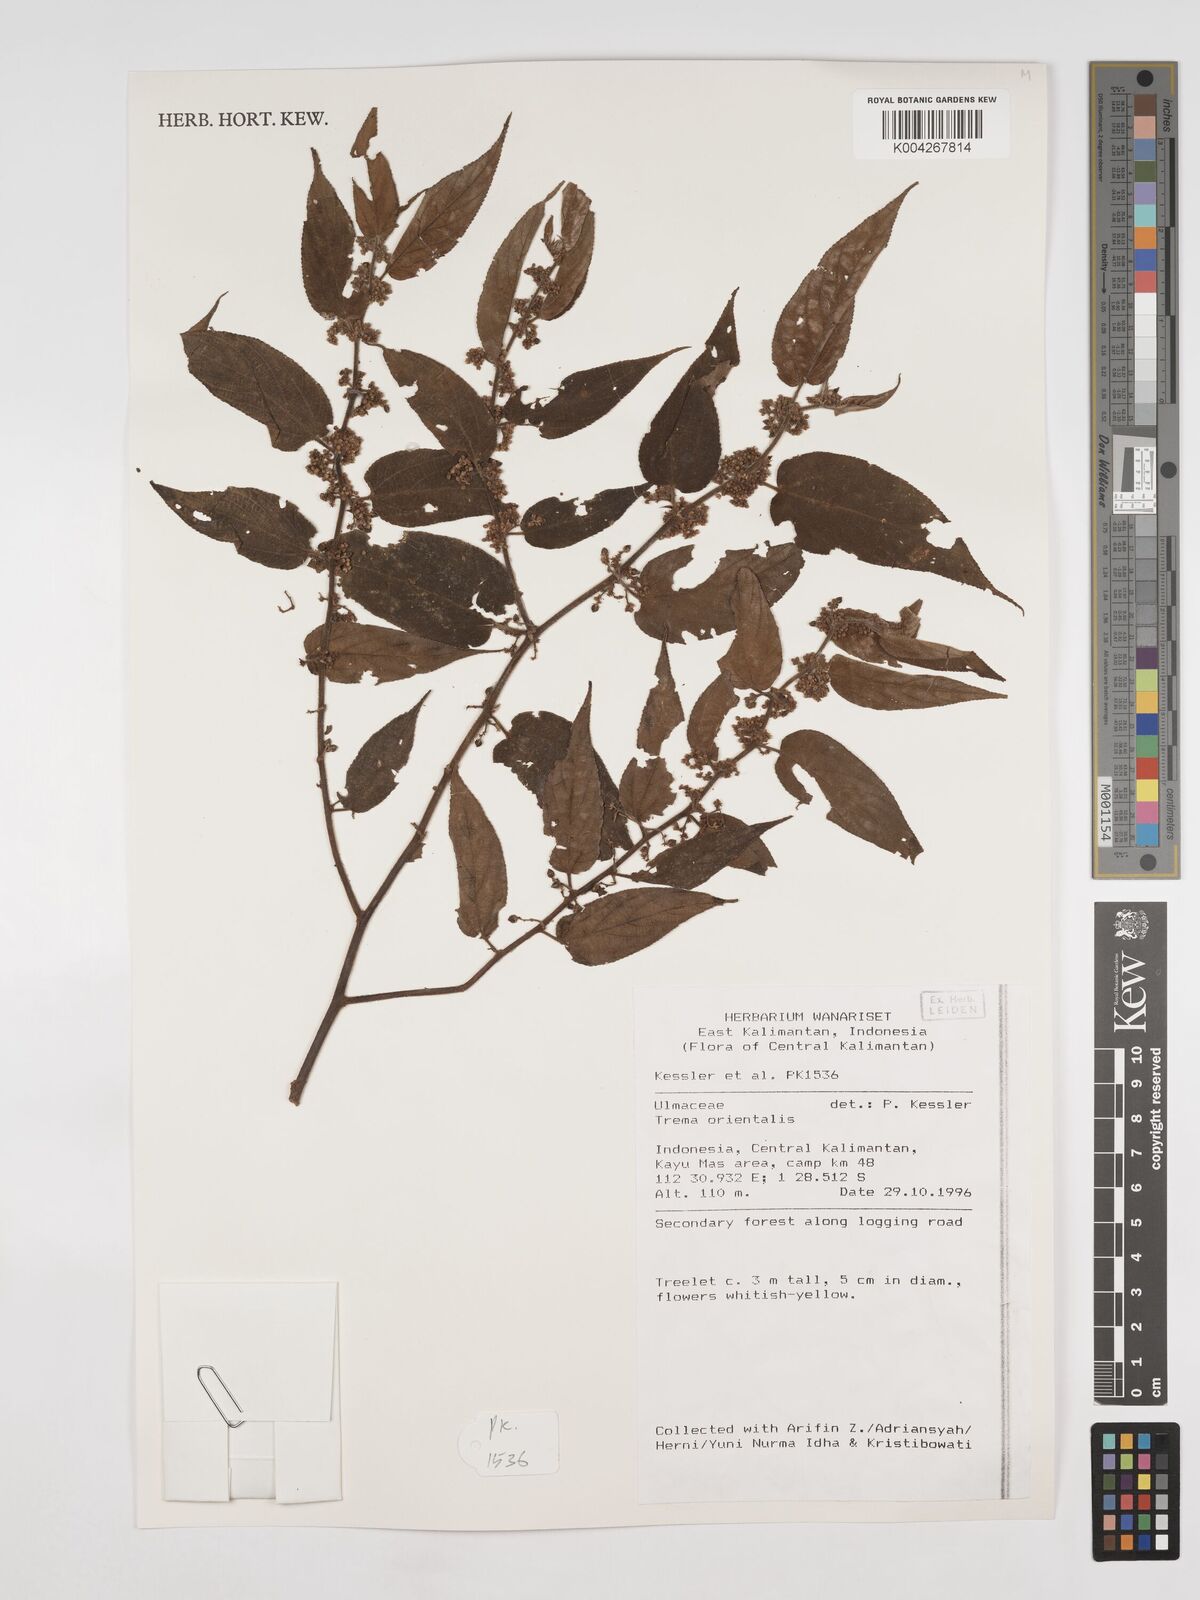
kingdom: Plantae
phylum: Tracheophyta
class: Magnoliopsida
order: Rosales
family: Cannabaceae
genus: Trema
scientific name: Trema orientale
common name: Indian charcoal tree
